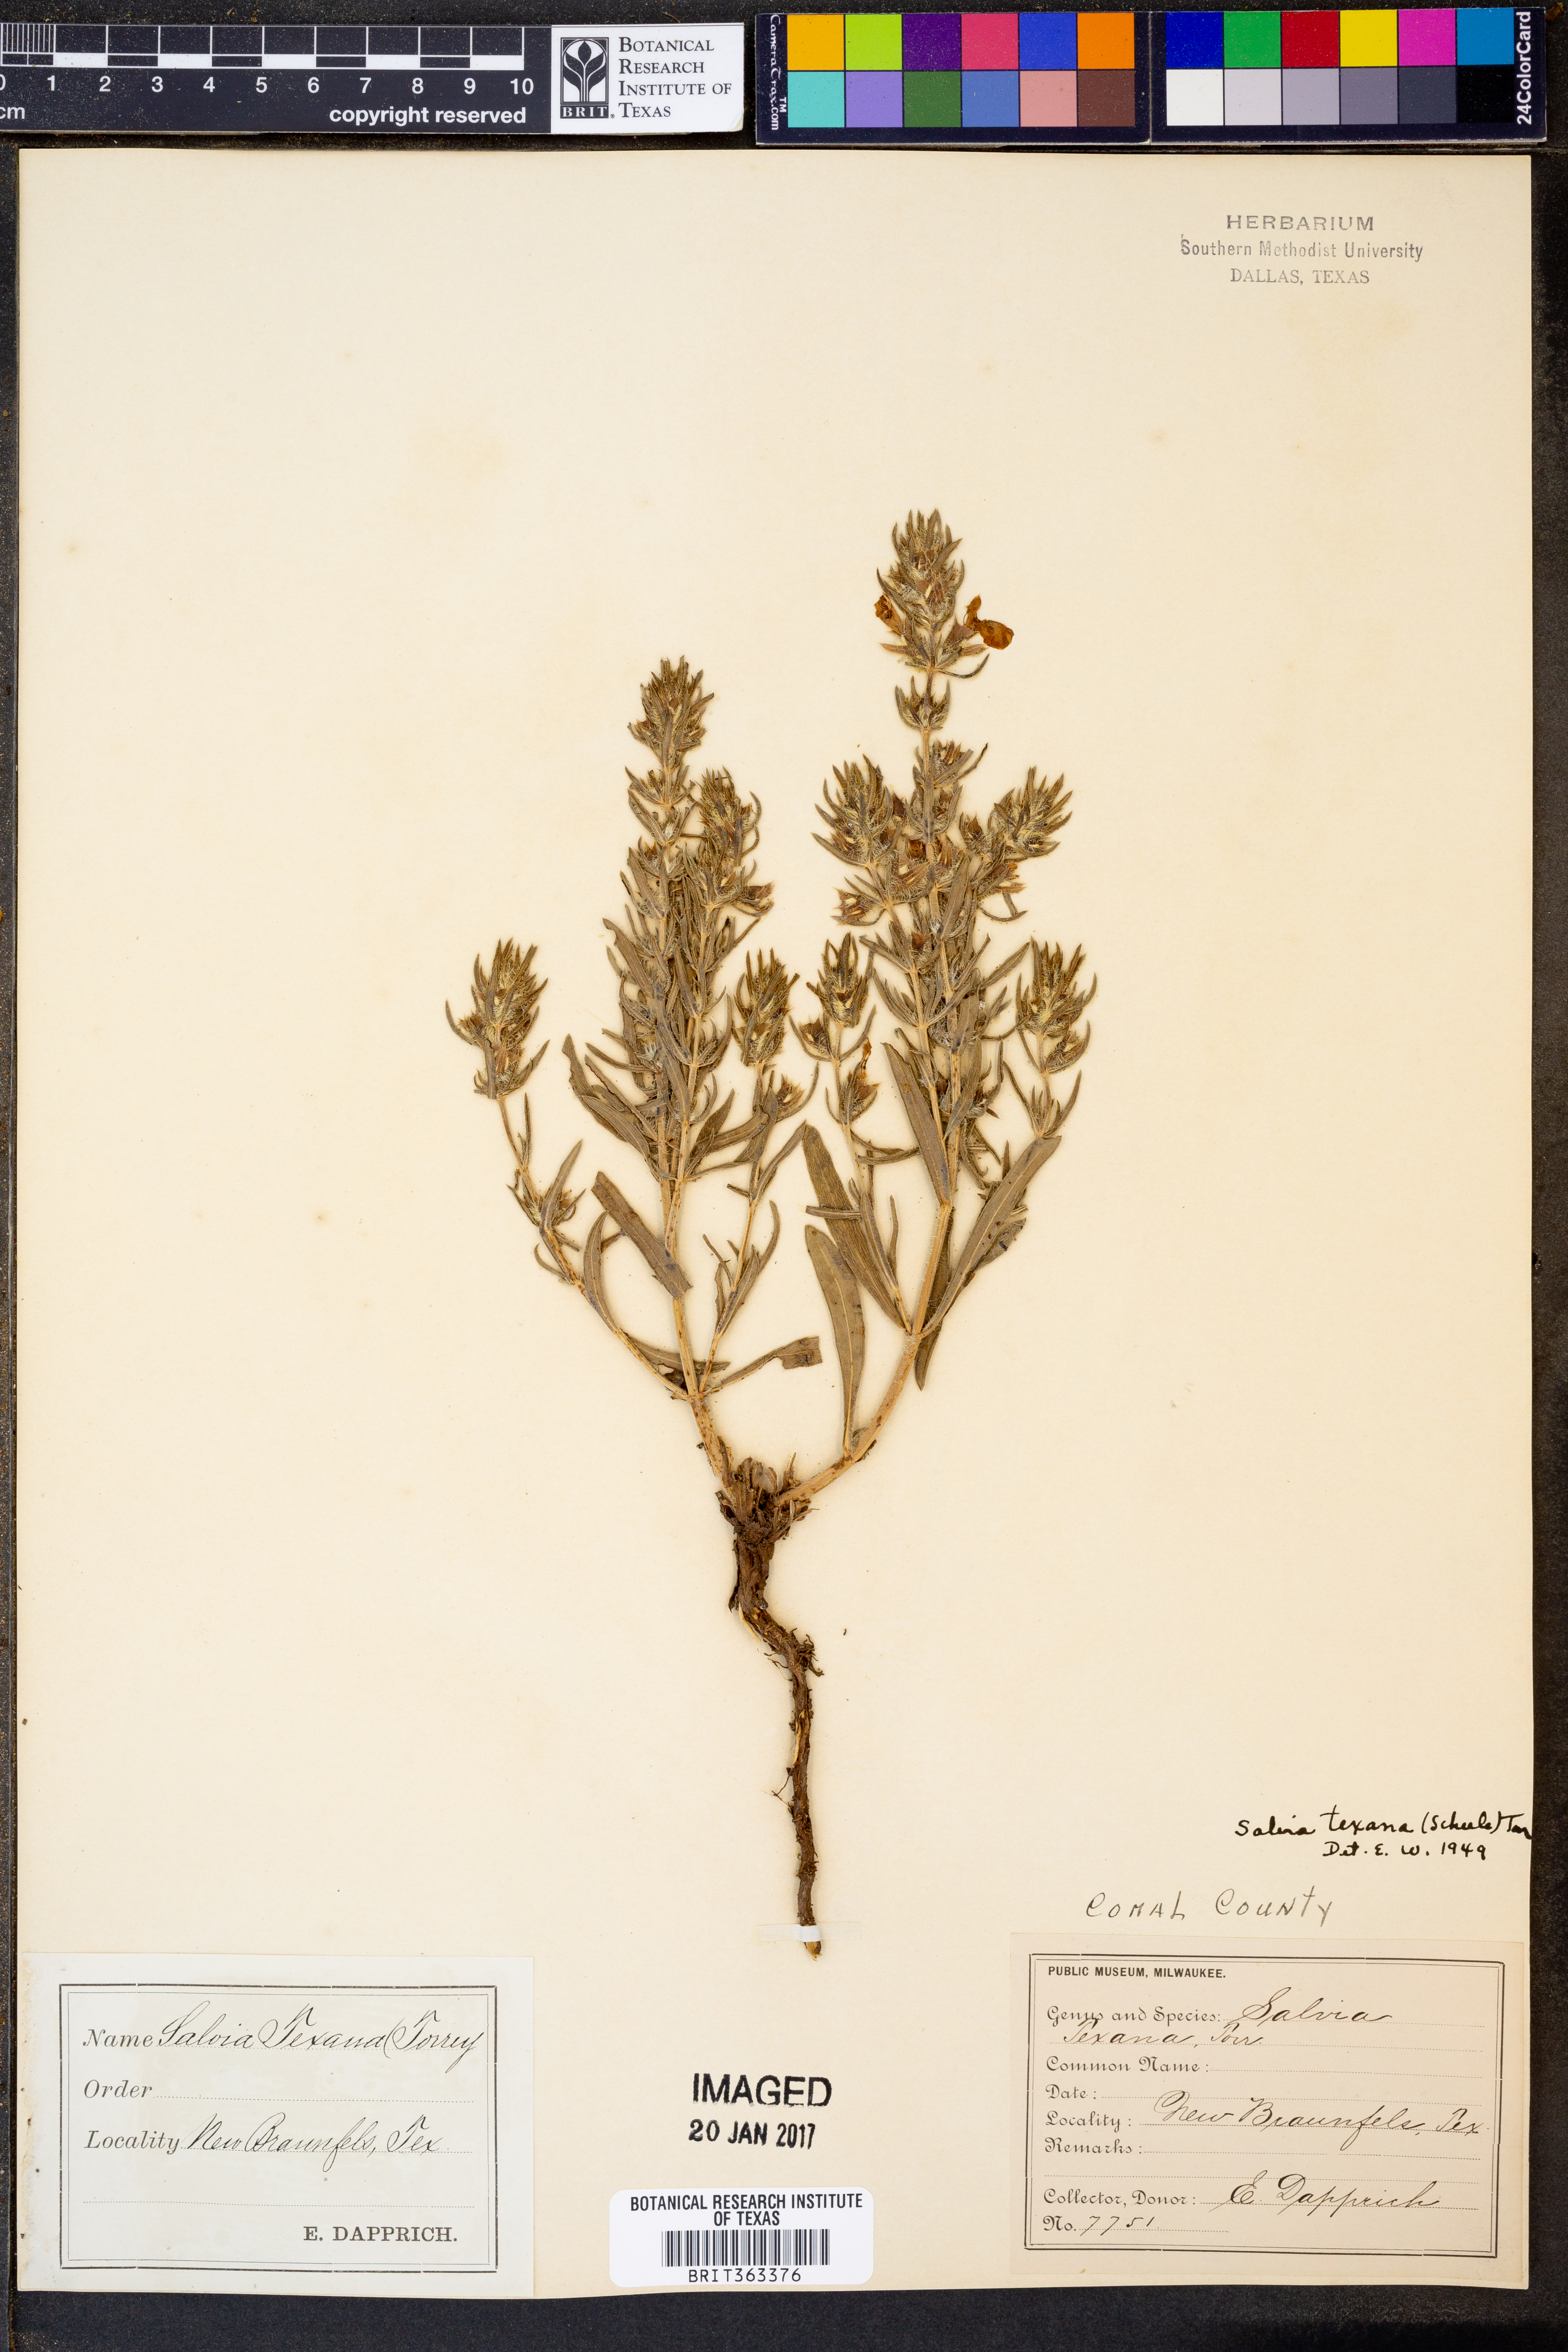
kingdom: Plantae
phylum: Tracheophyta
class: Magnoliopsida
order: Lamiales
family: Lamiaceae
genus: Salvia
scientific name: Salvia texana
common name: Texas sage
